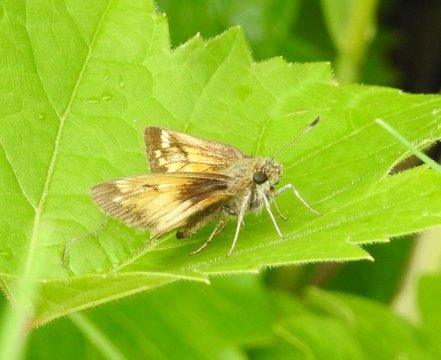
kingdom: Animalia
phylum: Arthropoda
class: Insecta
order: Lepidoptera
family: Hesperiidae
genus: Lon
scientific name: Lon hobomok
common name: Hobomok Skipper
